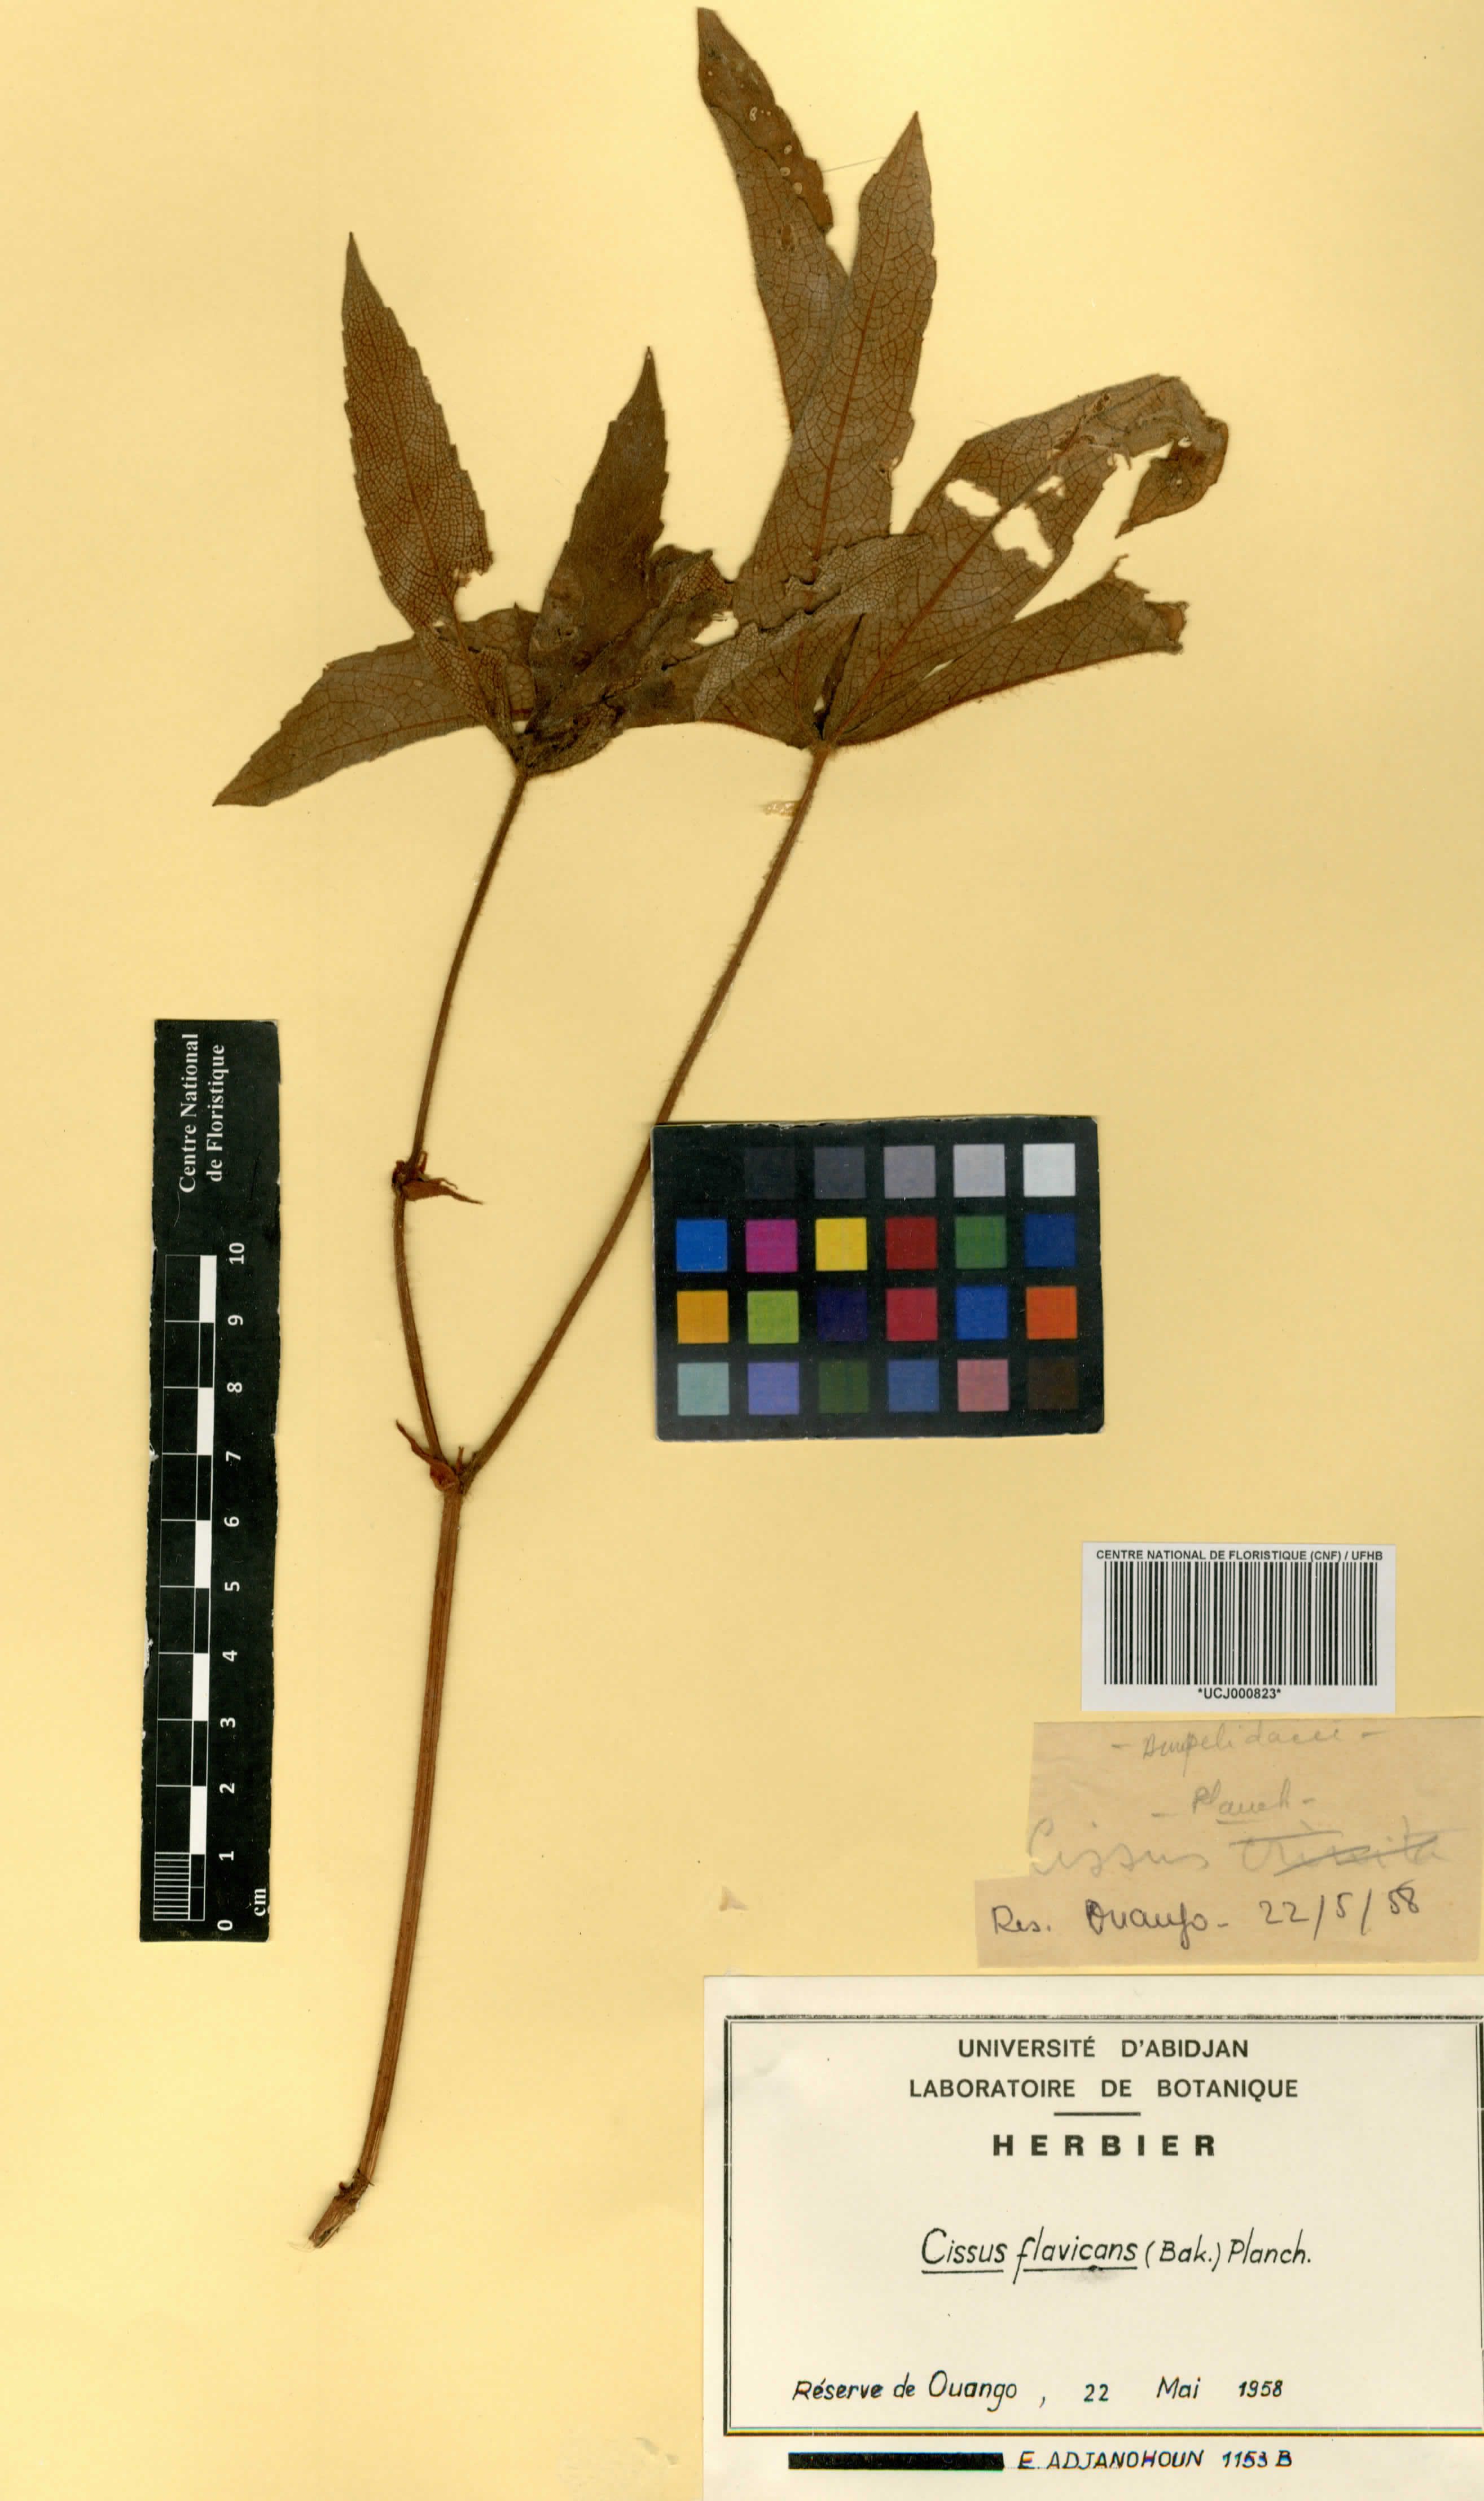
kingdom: Plantae
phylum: Tracheophyta
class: Magnoliopsida
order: Vitales
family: Vitaceae
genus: Cissus
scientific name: Cissus doeringii
